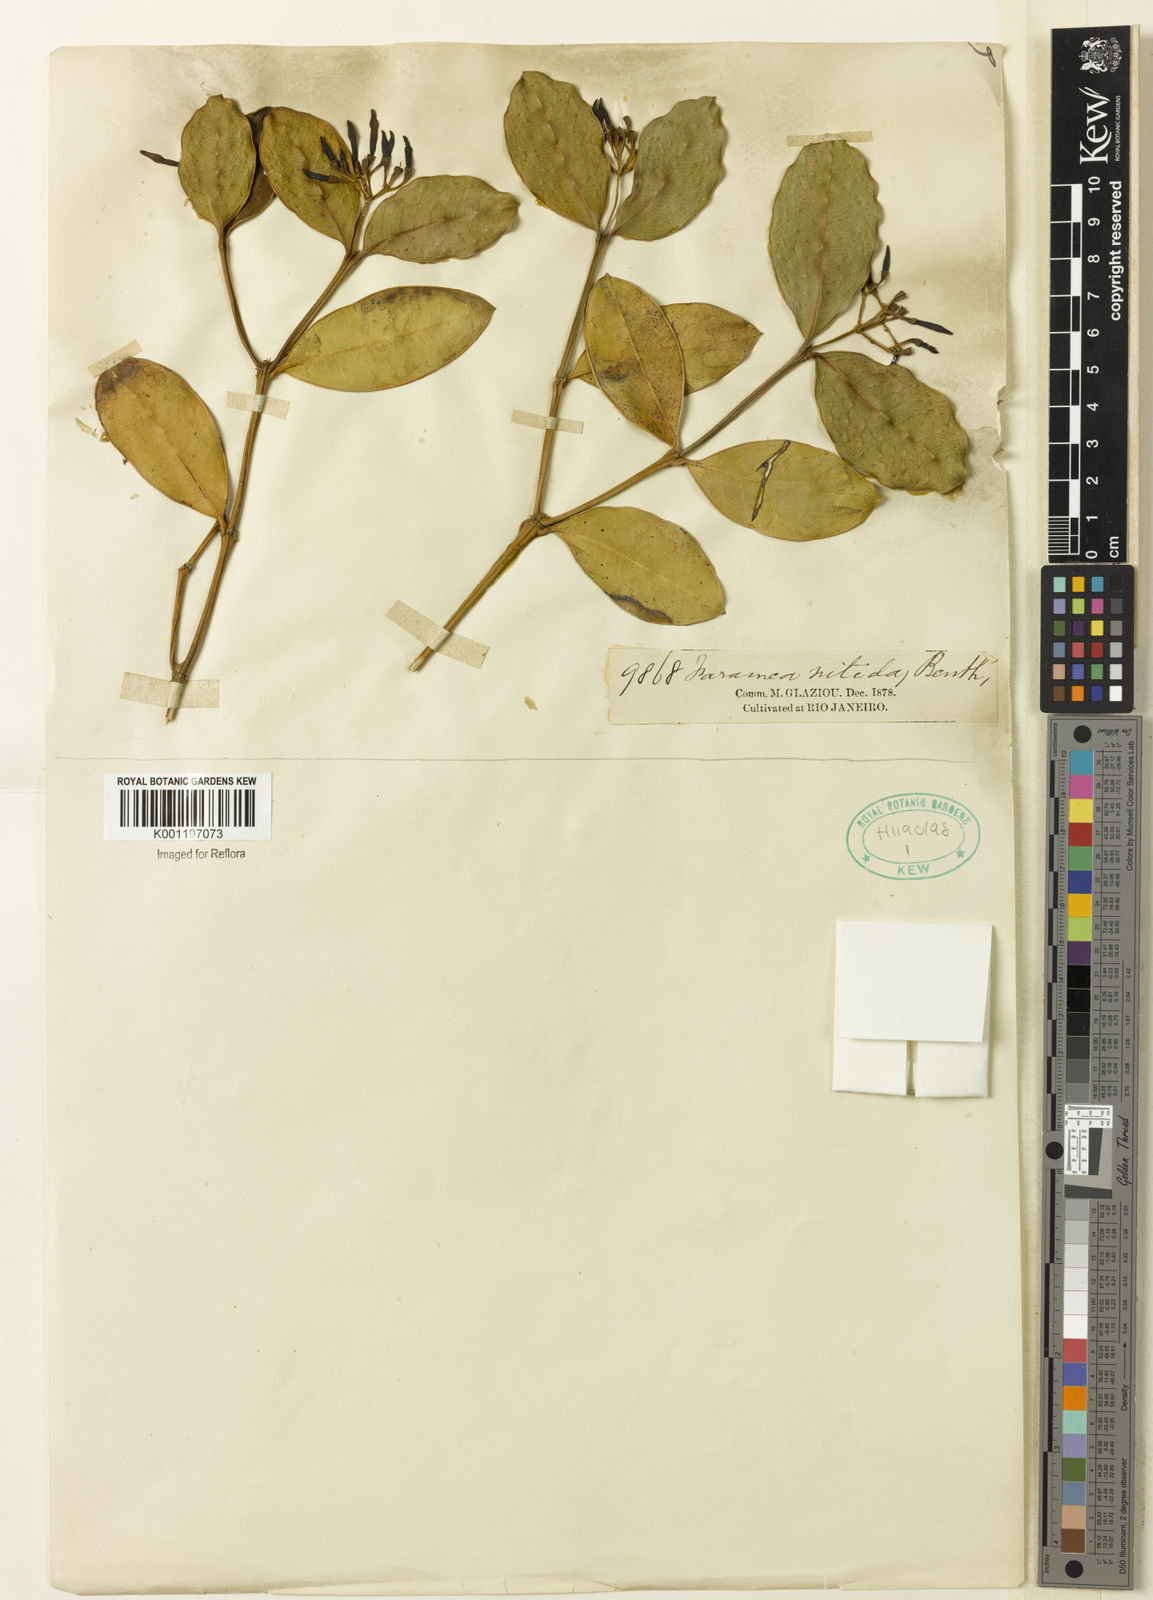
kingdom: Plantae
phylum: Tracheophyta
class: Magnoliopsida
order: Gentianales
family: Rubiaceae
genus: Faramea
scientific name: Faramea nitida
